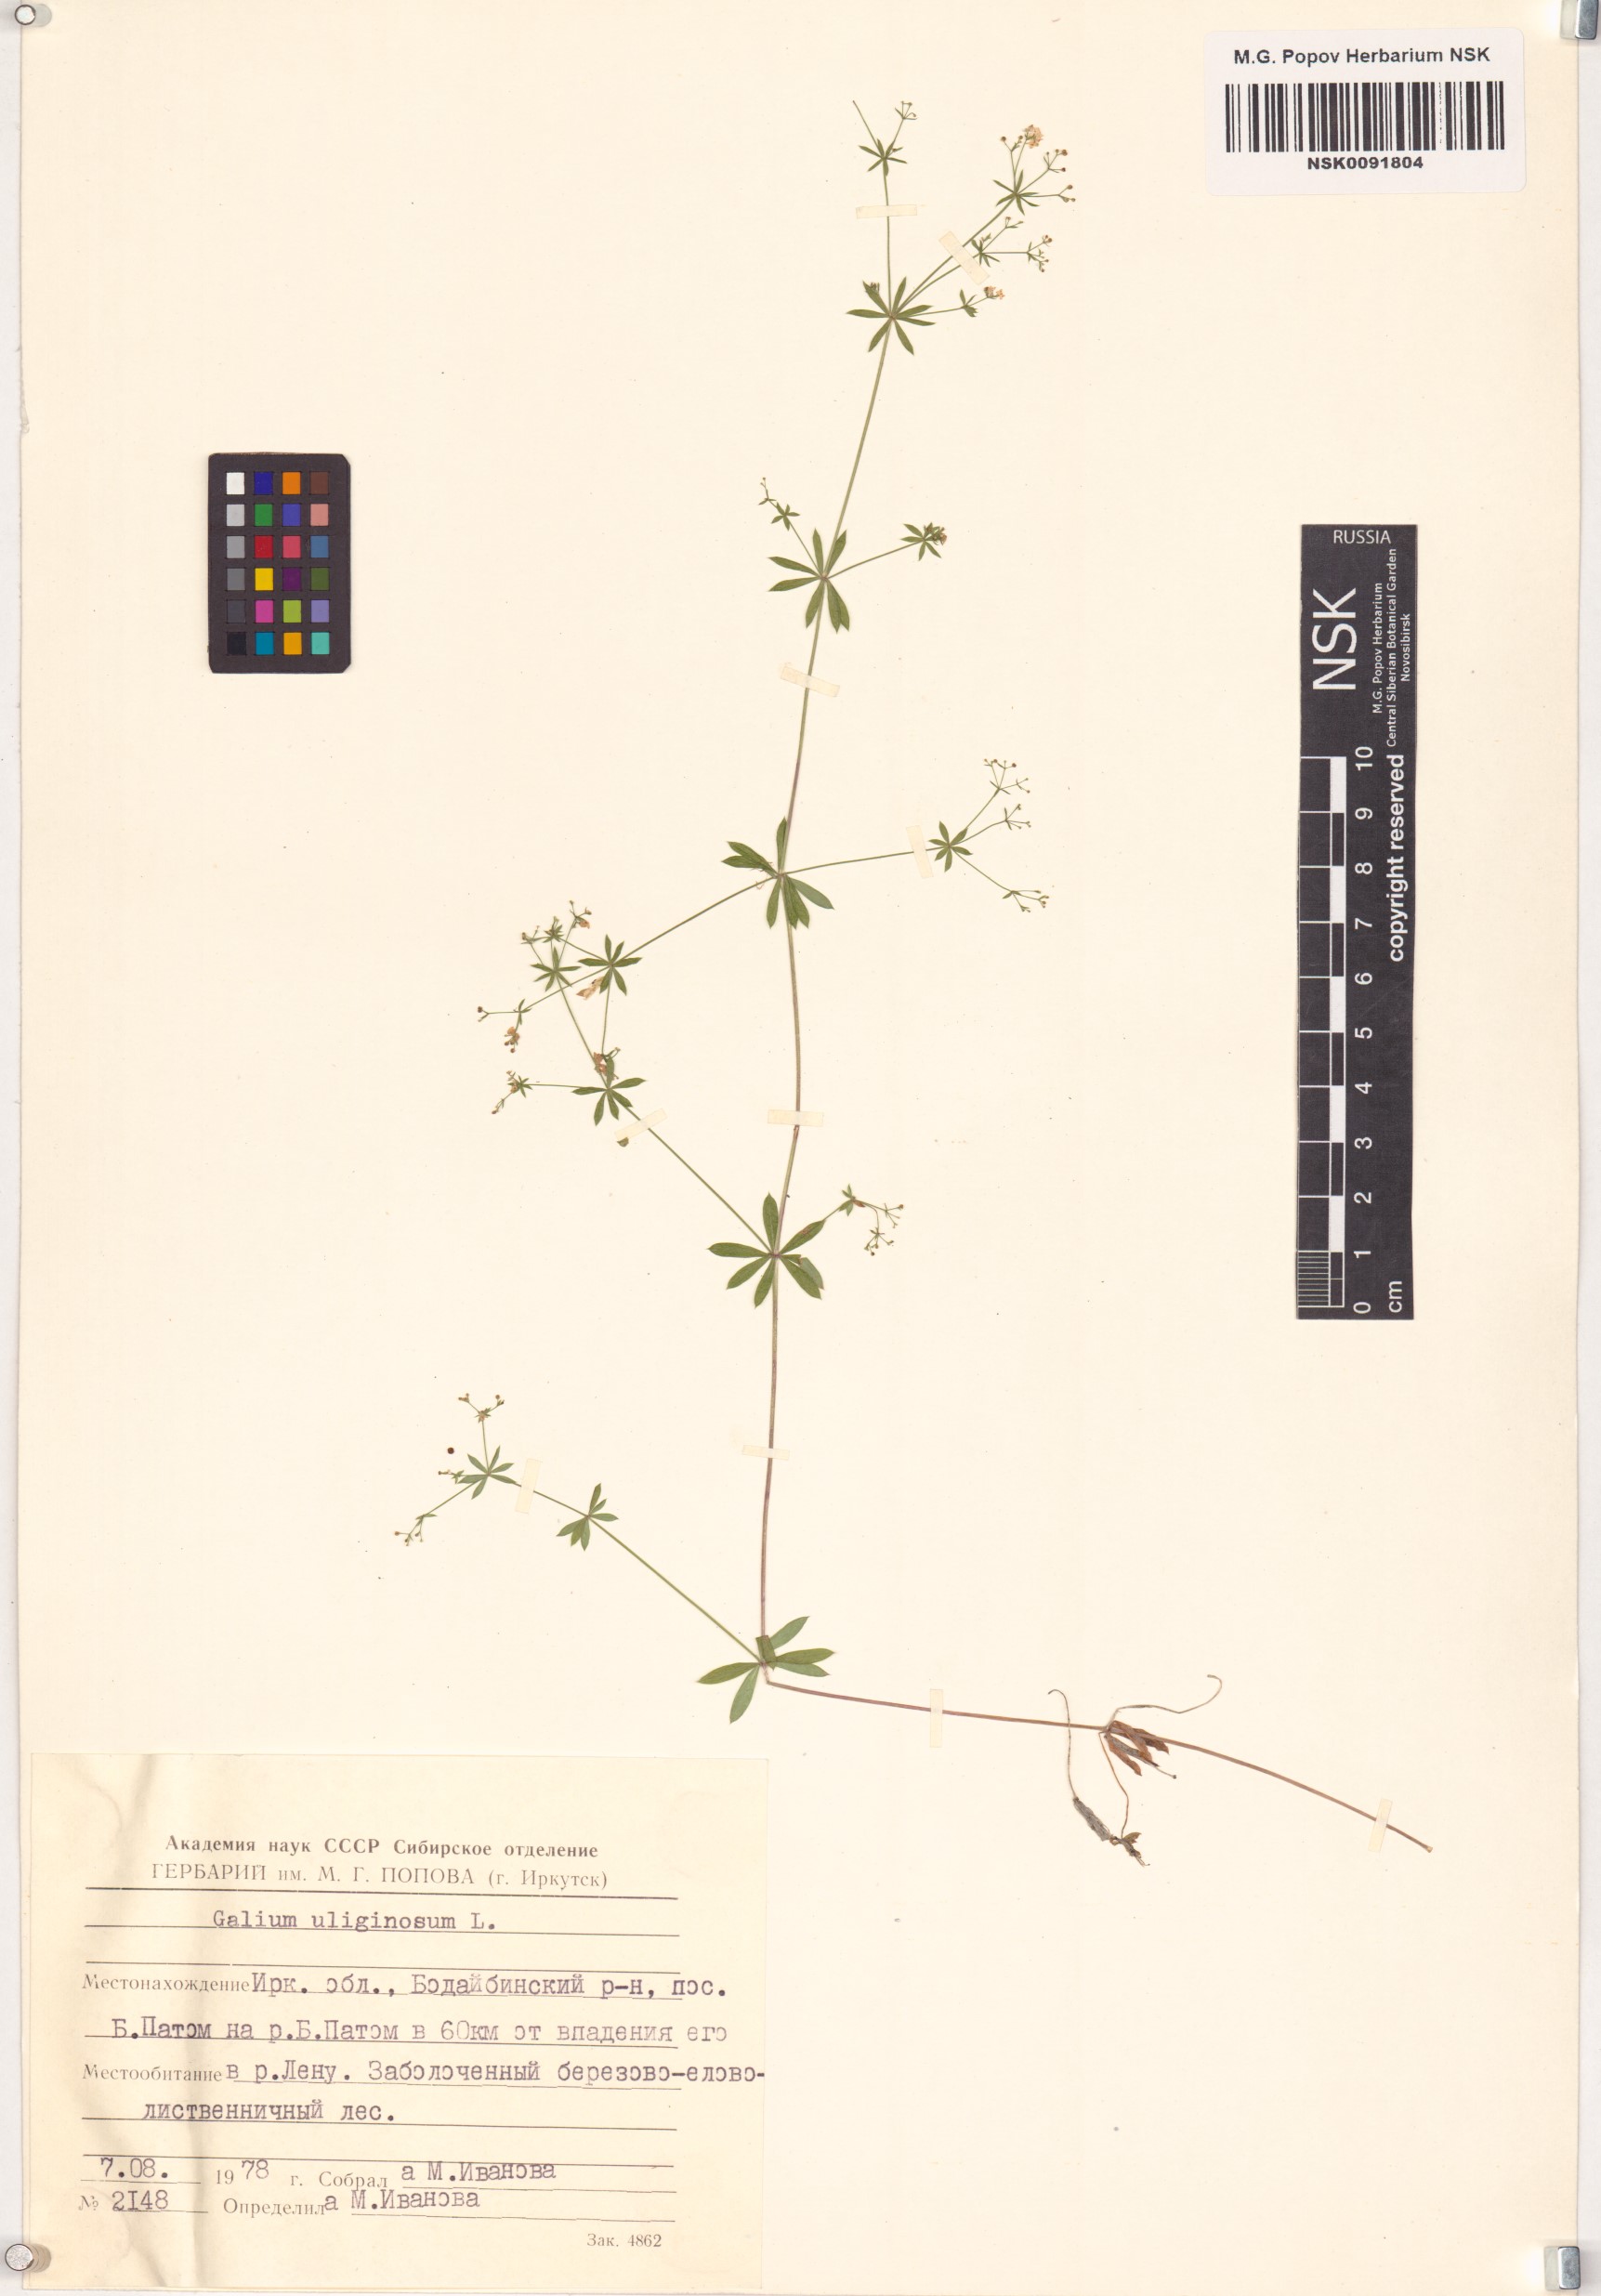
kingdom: Plantae
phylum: Tracheophyta
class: Magnoliopsida
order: Gentianales
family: Rubiaceae
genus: Galium
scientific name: Galium uliginosum
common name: Fen bedstraw
